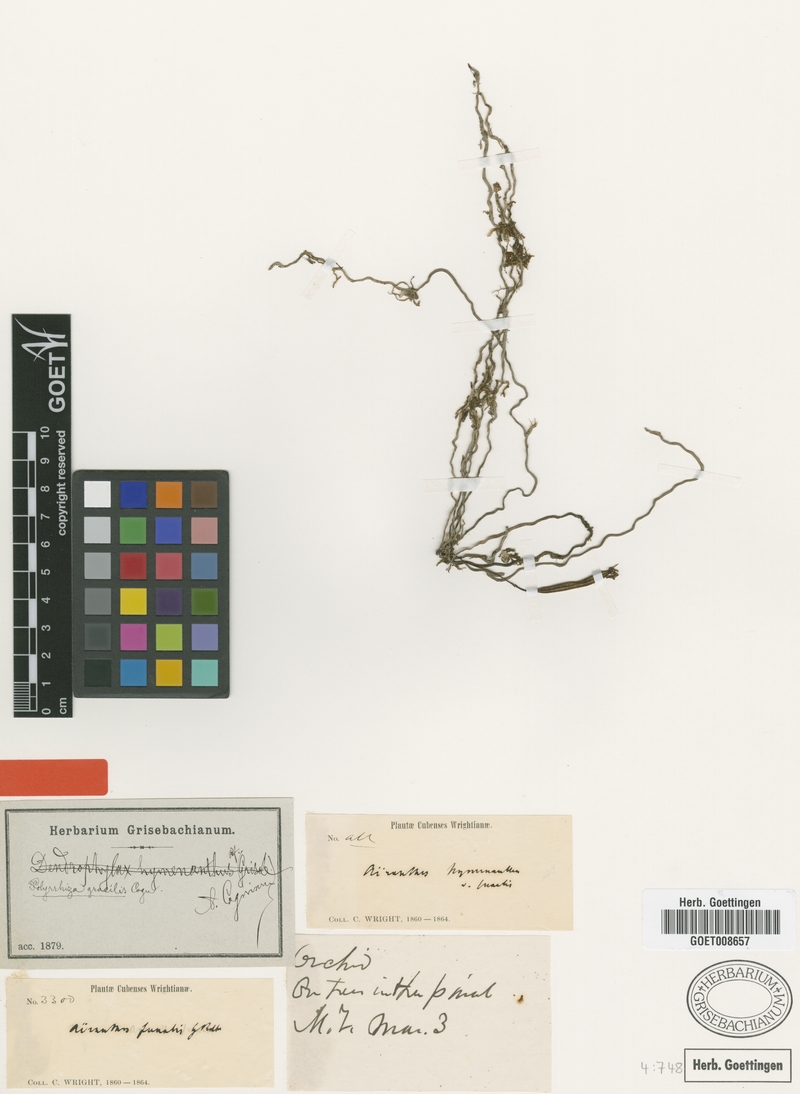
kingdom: Plantae
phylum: Tracheophyta
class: Liliopsida
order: Asparagales
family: Orchidaceae
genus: Dendrophylax
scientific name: Dendrophylax gracilis
